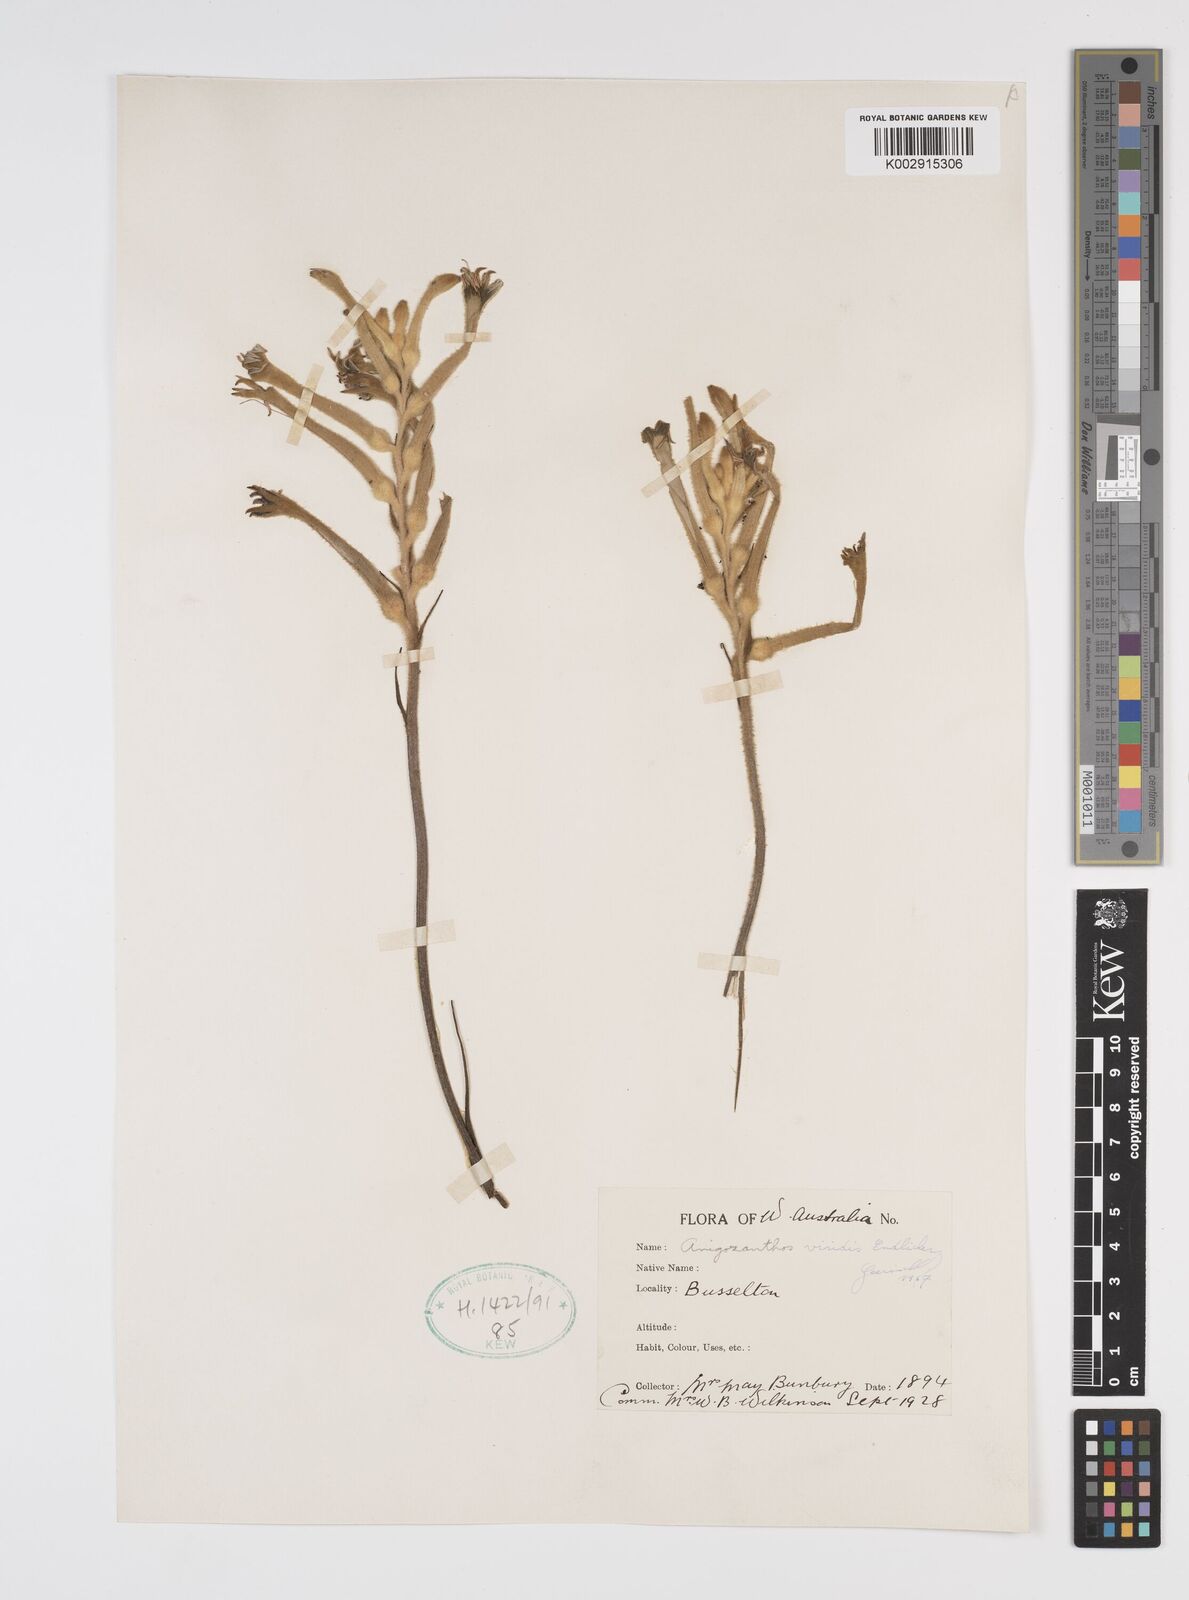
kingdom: Plantae
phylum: Tracheophyta
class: Liliopsida
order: Commelinales
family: Haemodoraceae
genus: Anigozanthos
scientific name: Anigozanthos viridis
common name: Green kangaroo-paw
